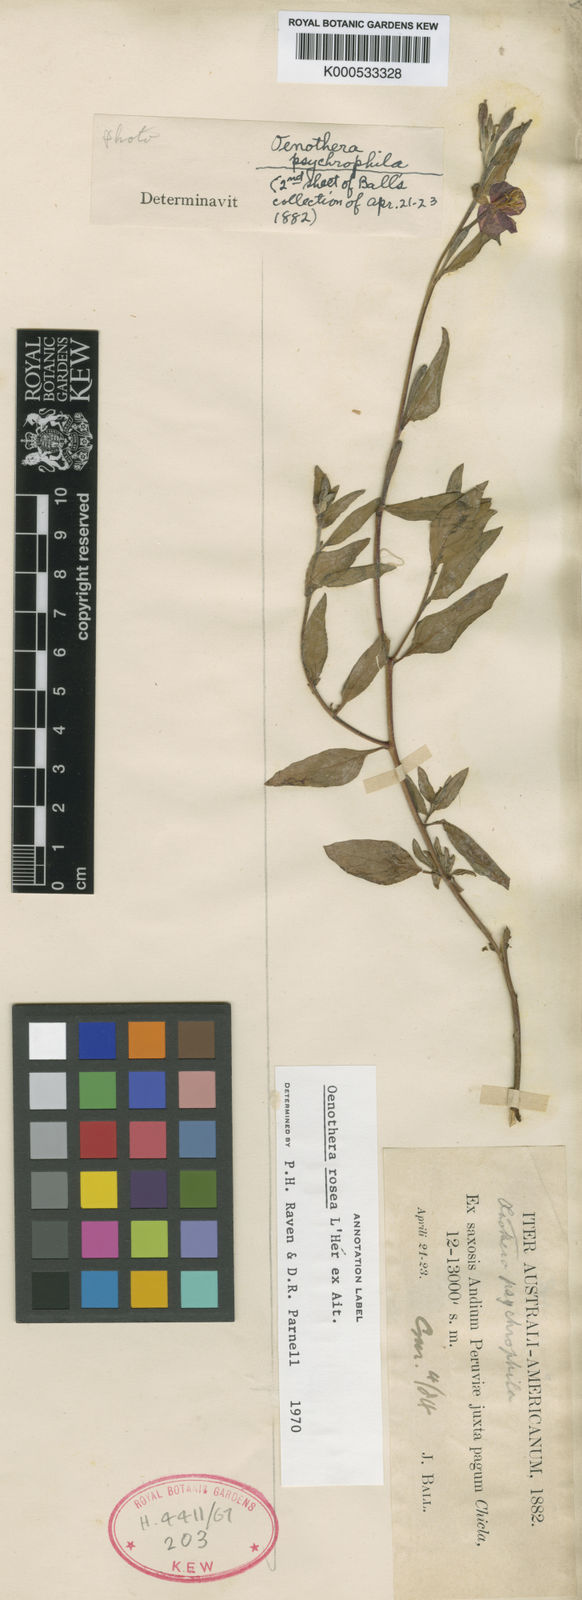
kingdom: Plantae
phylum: Tracheophyta
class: Magnoliopsida
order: Myrtales
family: Onagraceae
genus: Oenothera
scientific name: Oenothera
